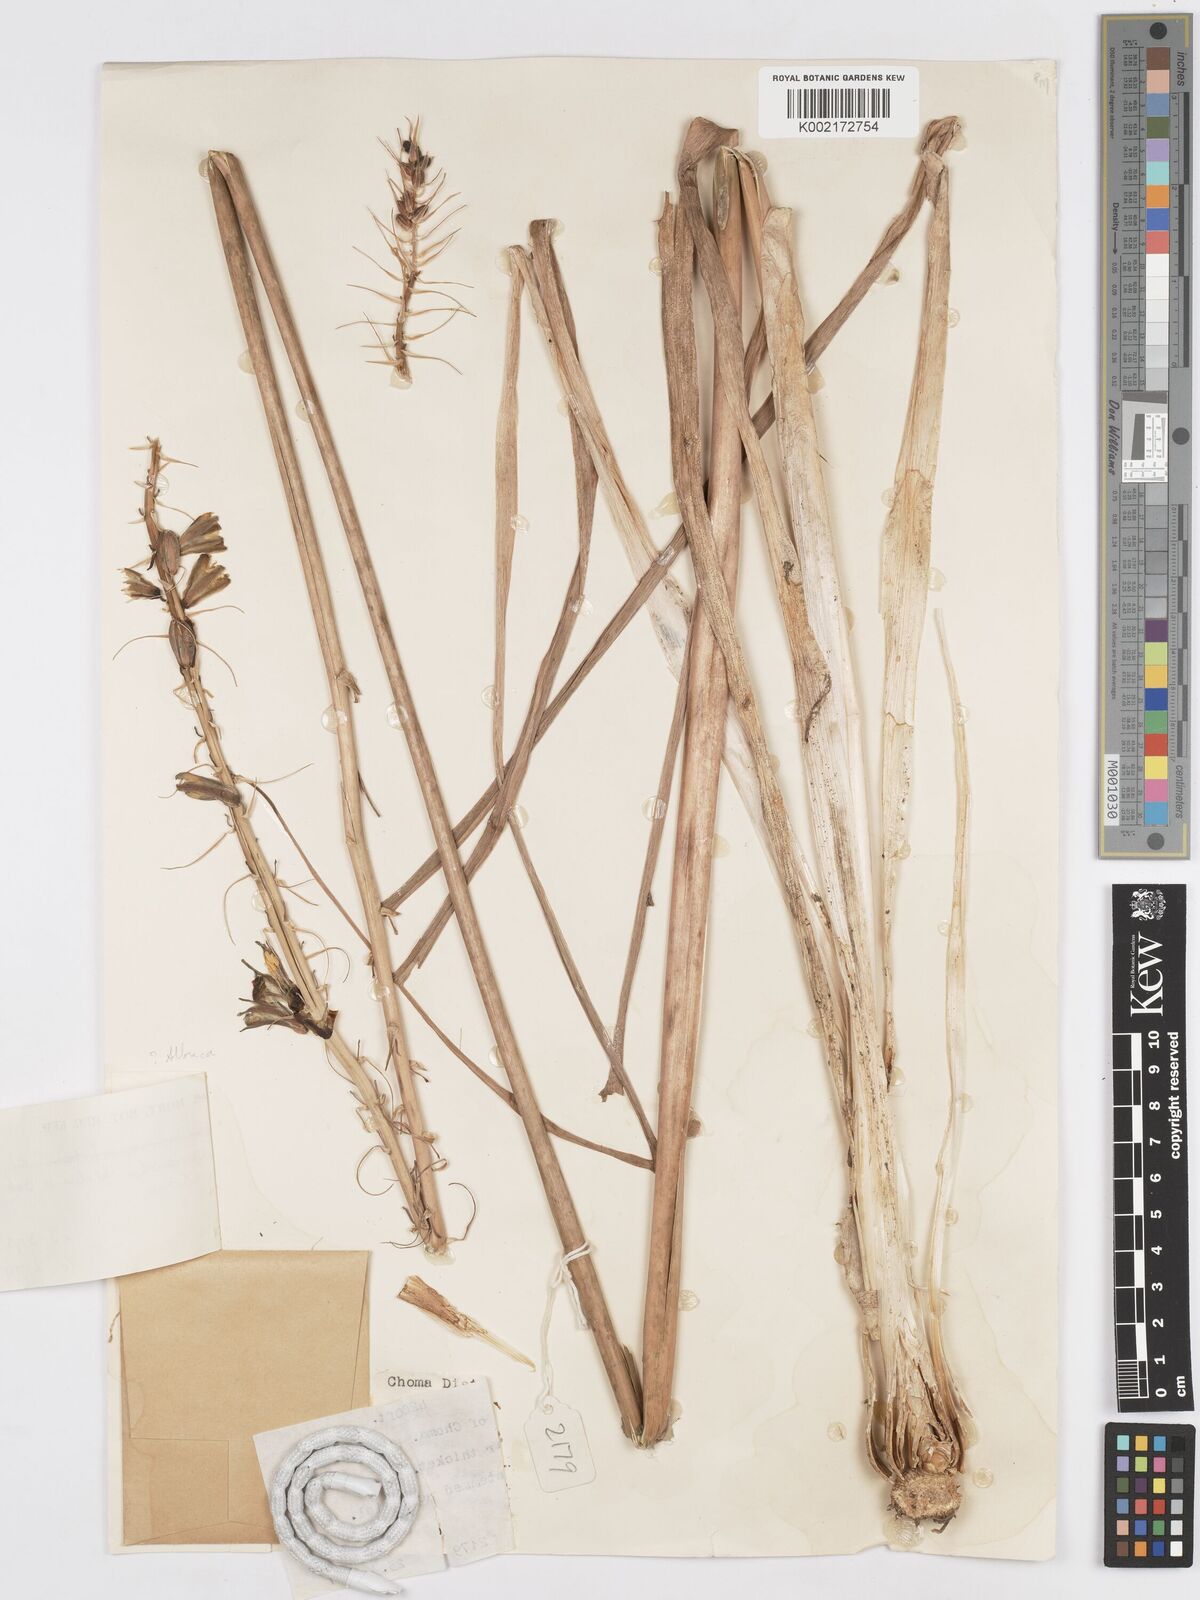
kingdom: Plantae
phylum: Tracheophyta
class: Liliopsida
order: Asparagales
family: Asparagaceae
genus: Albuca
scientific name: Albuca abyssinica
